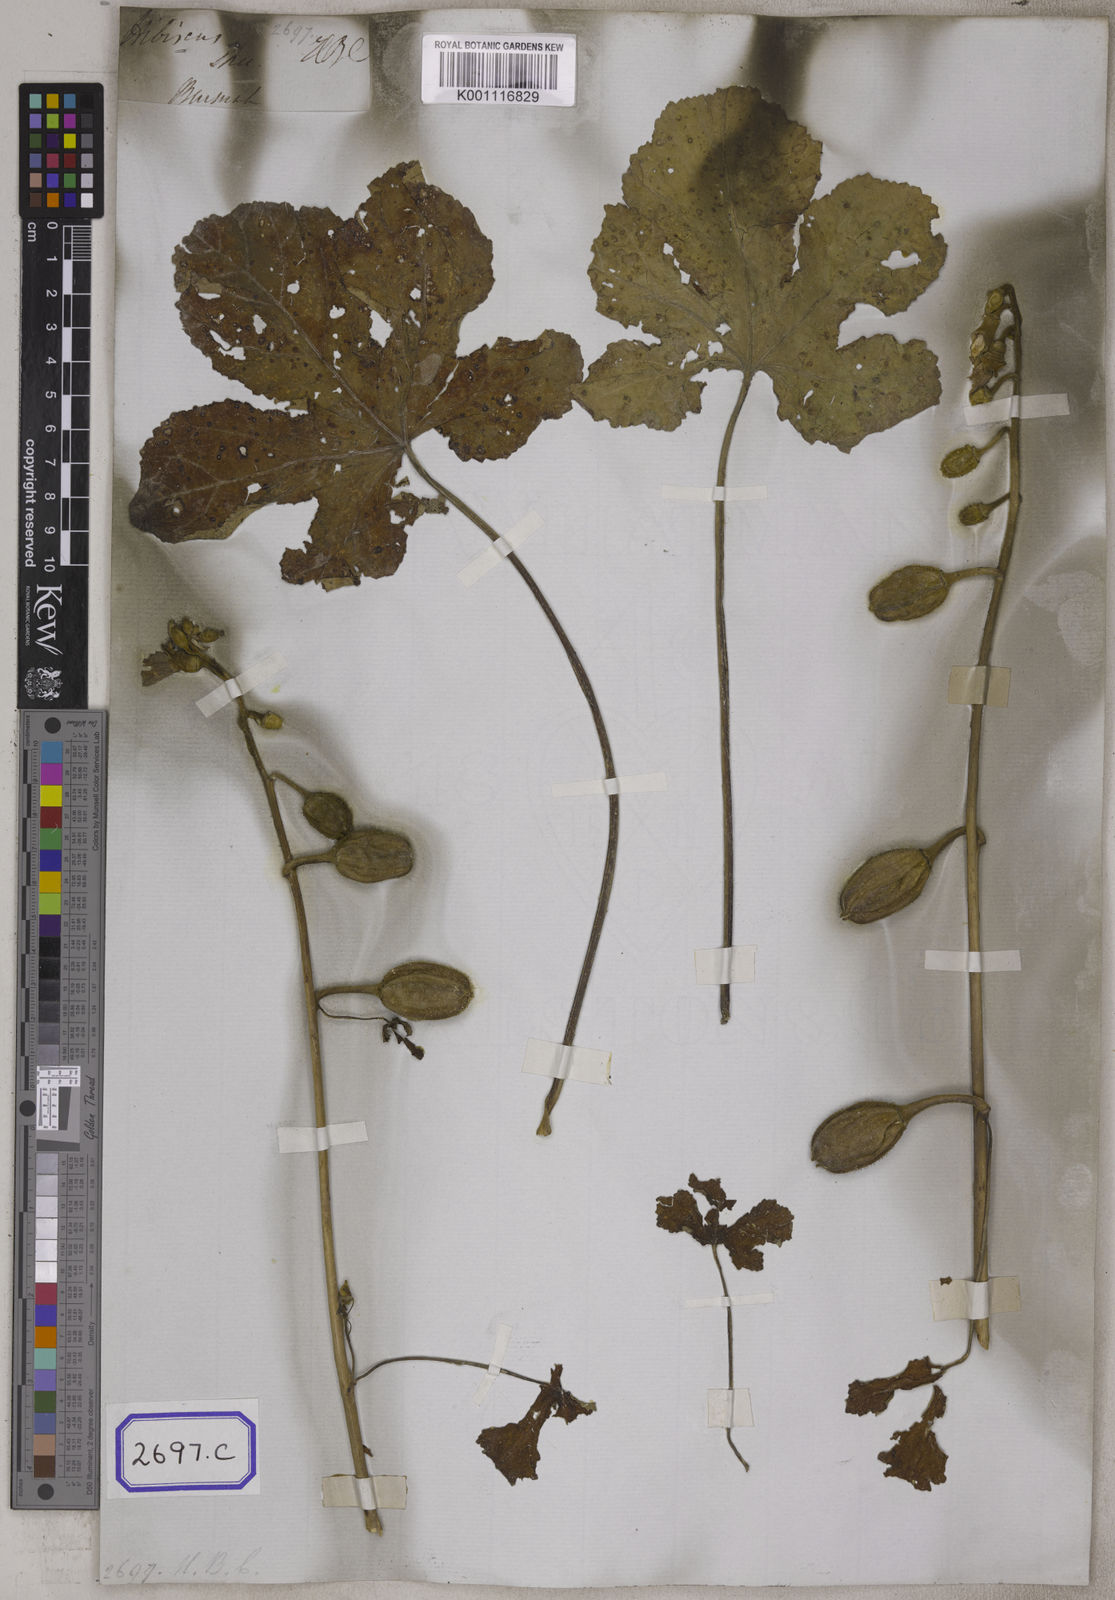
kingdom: Plantae
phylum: Tracheophyta
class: Magnoliopsida
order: Malvales
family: Malvaceae
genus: Abelmoschus
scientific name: Abelmoschus ficulneus
